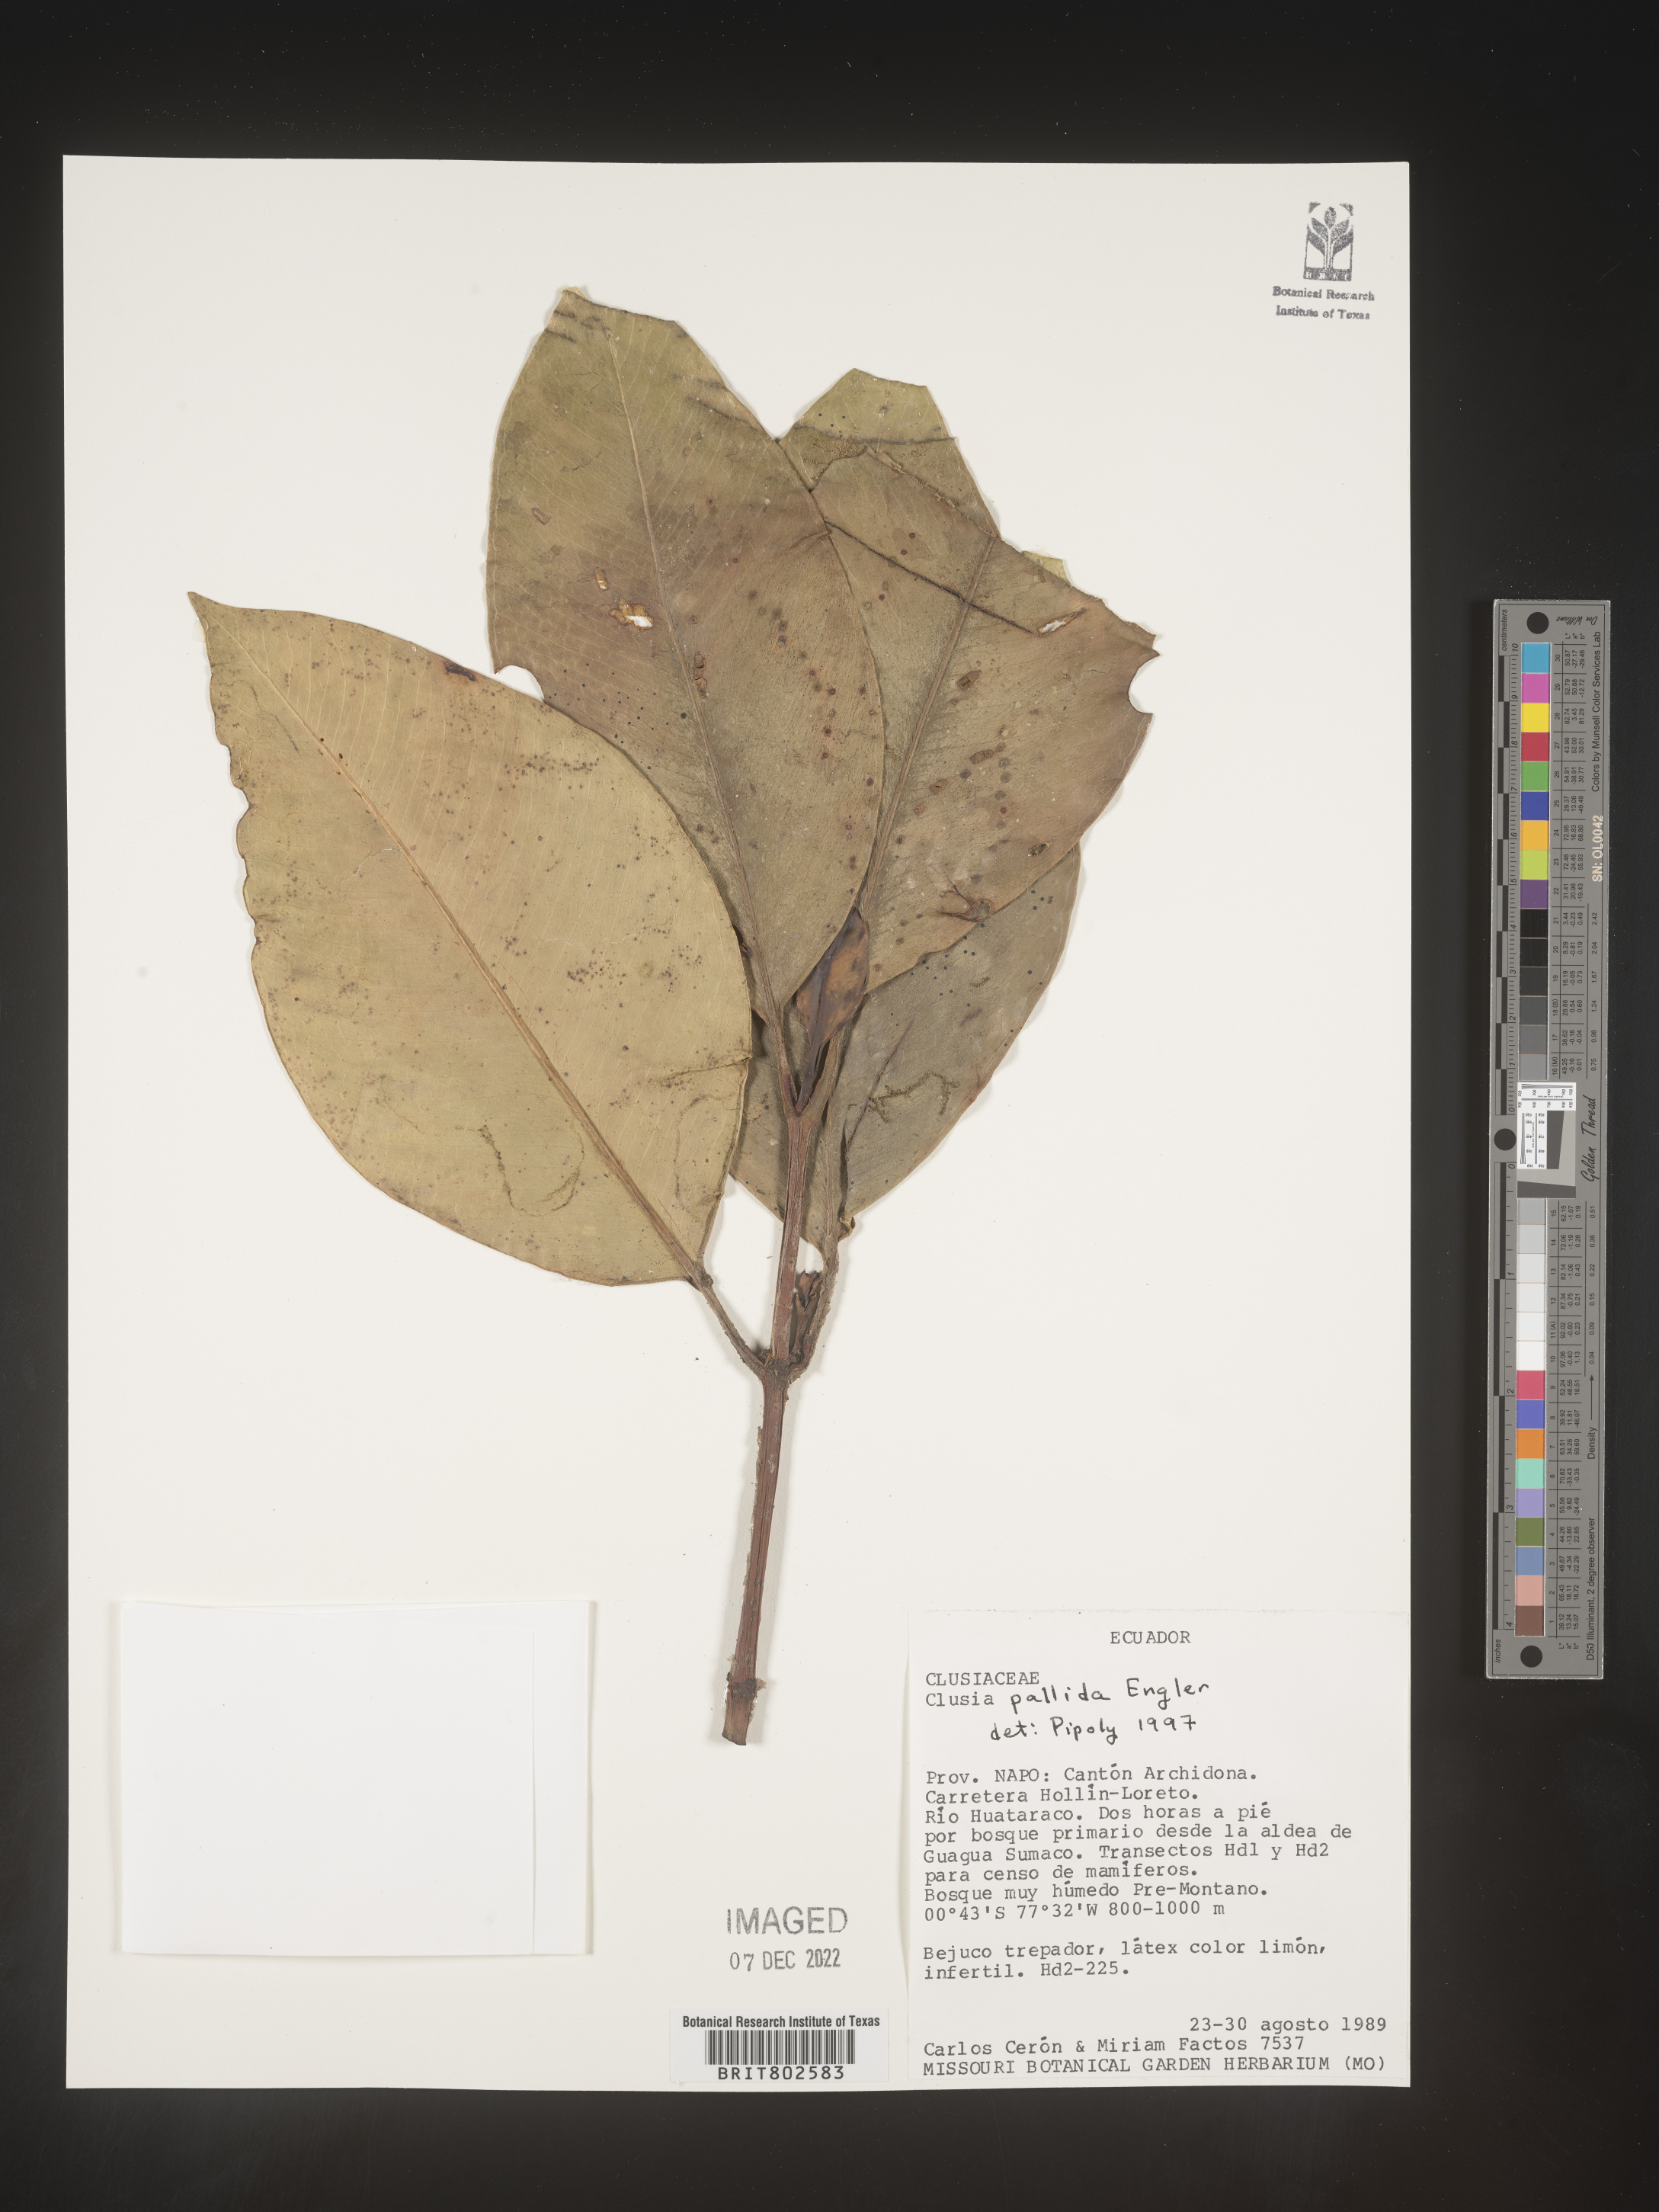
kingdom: Plantae
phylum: Tracheophyta
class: Magnoliopsida
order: Malpighiales
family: Clusiaceae
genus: Clusia
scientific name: Clusia pallida
